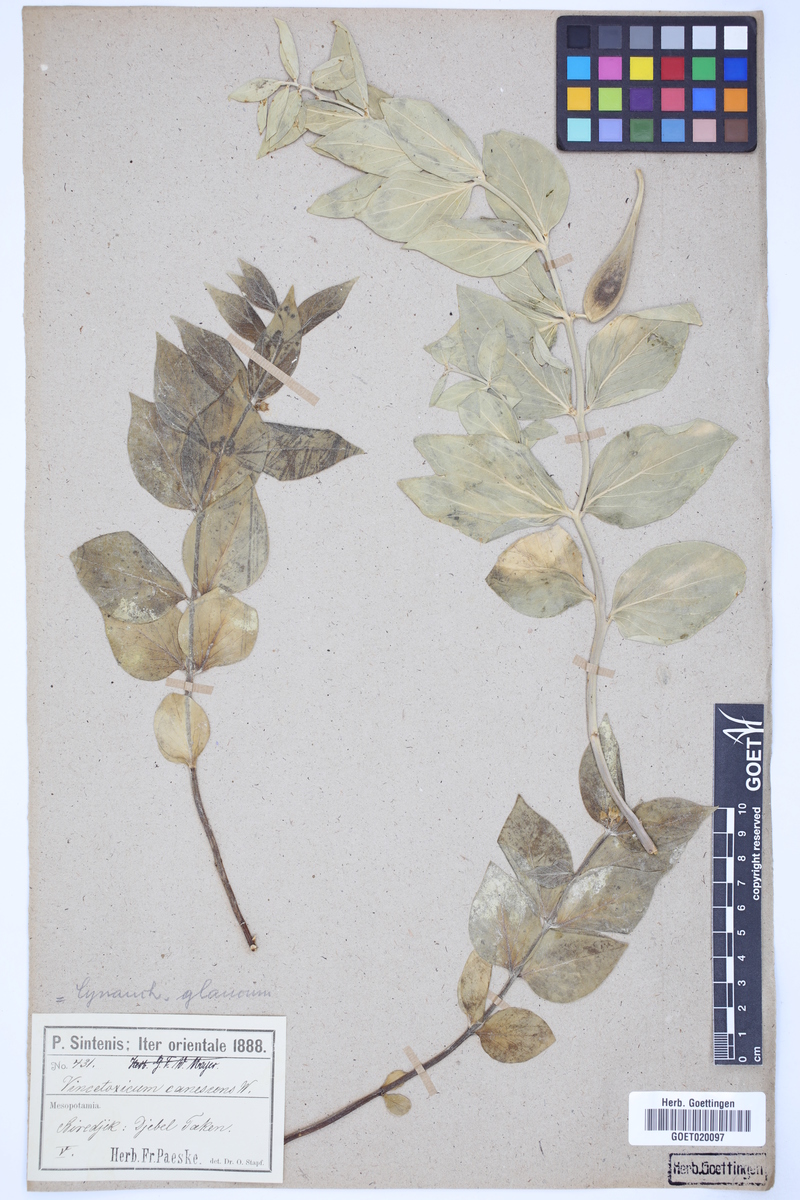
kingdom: Plantae
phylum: Tracheophyta
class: Magnoliopsida
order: Gentianales
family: Apocynaceae
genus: Vincetoxicum
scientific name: Vincetoxicum canescens
